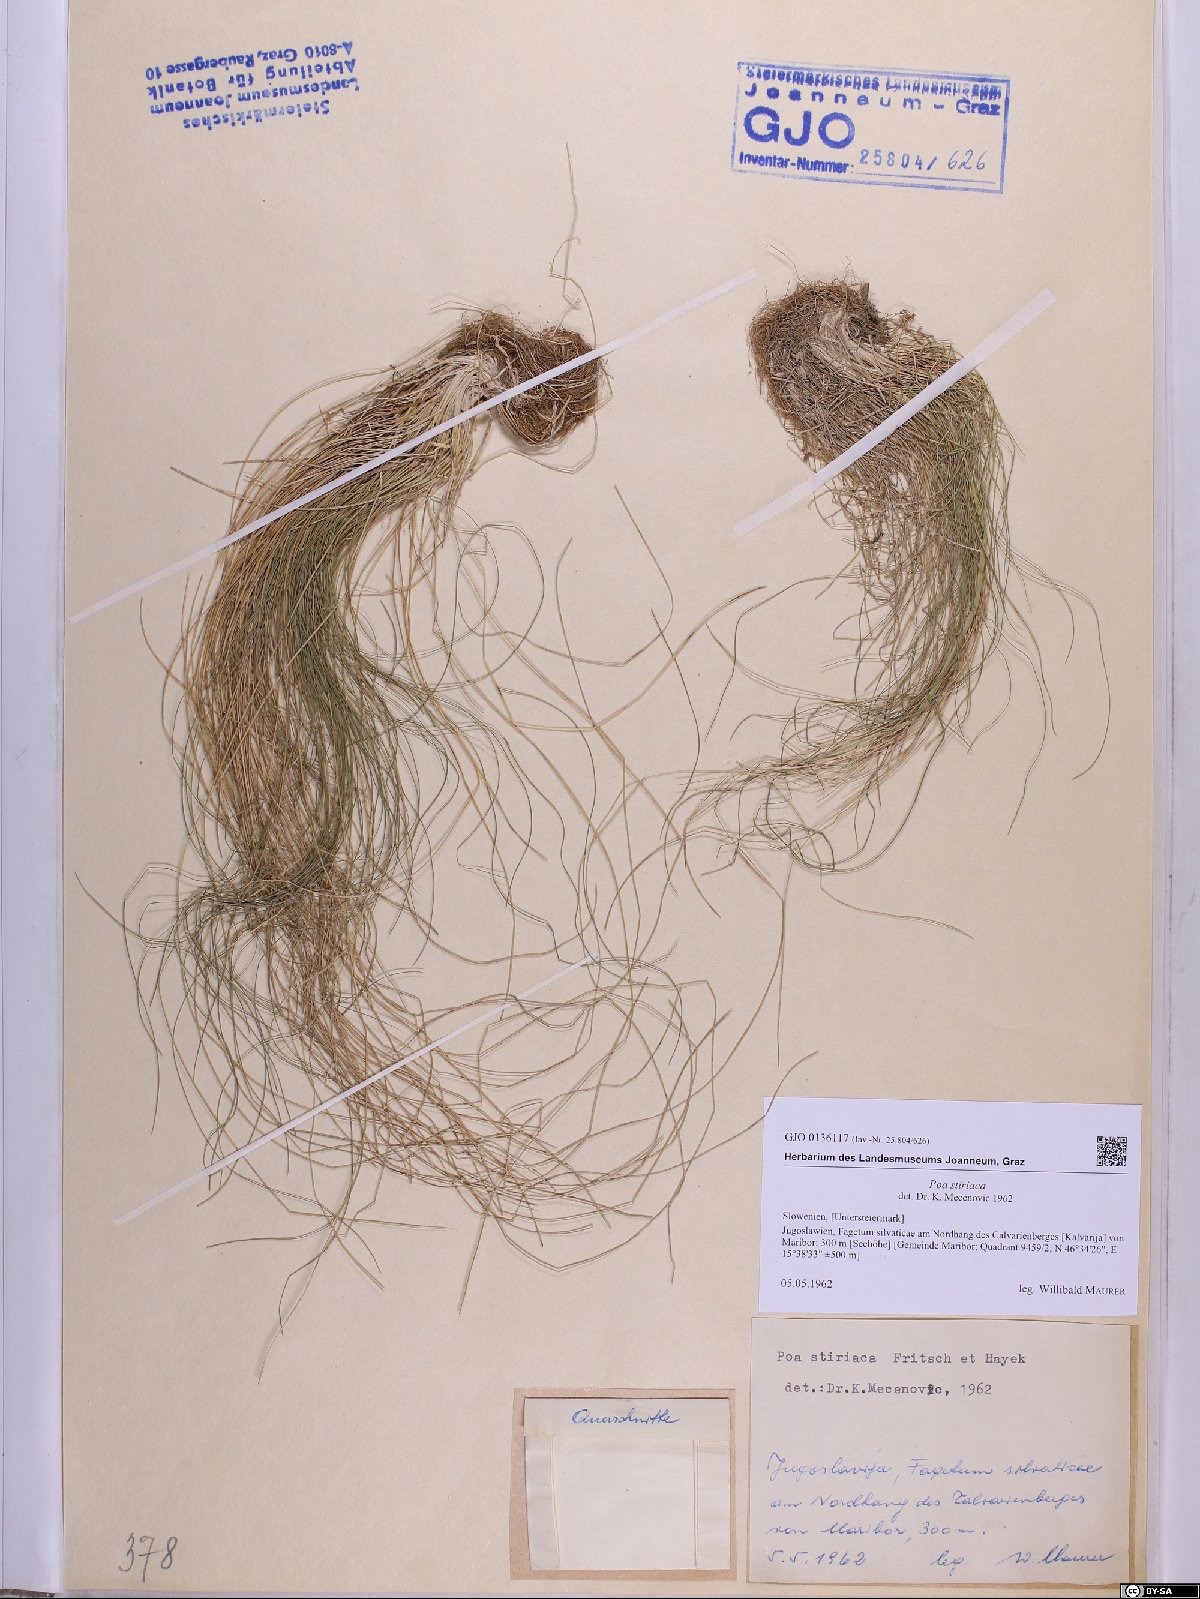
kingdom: Plantae
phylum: Tracheophyta
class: Liliopsida
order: Poales
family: Poaceae
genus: Poa
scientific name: Poa stiriaca
